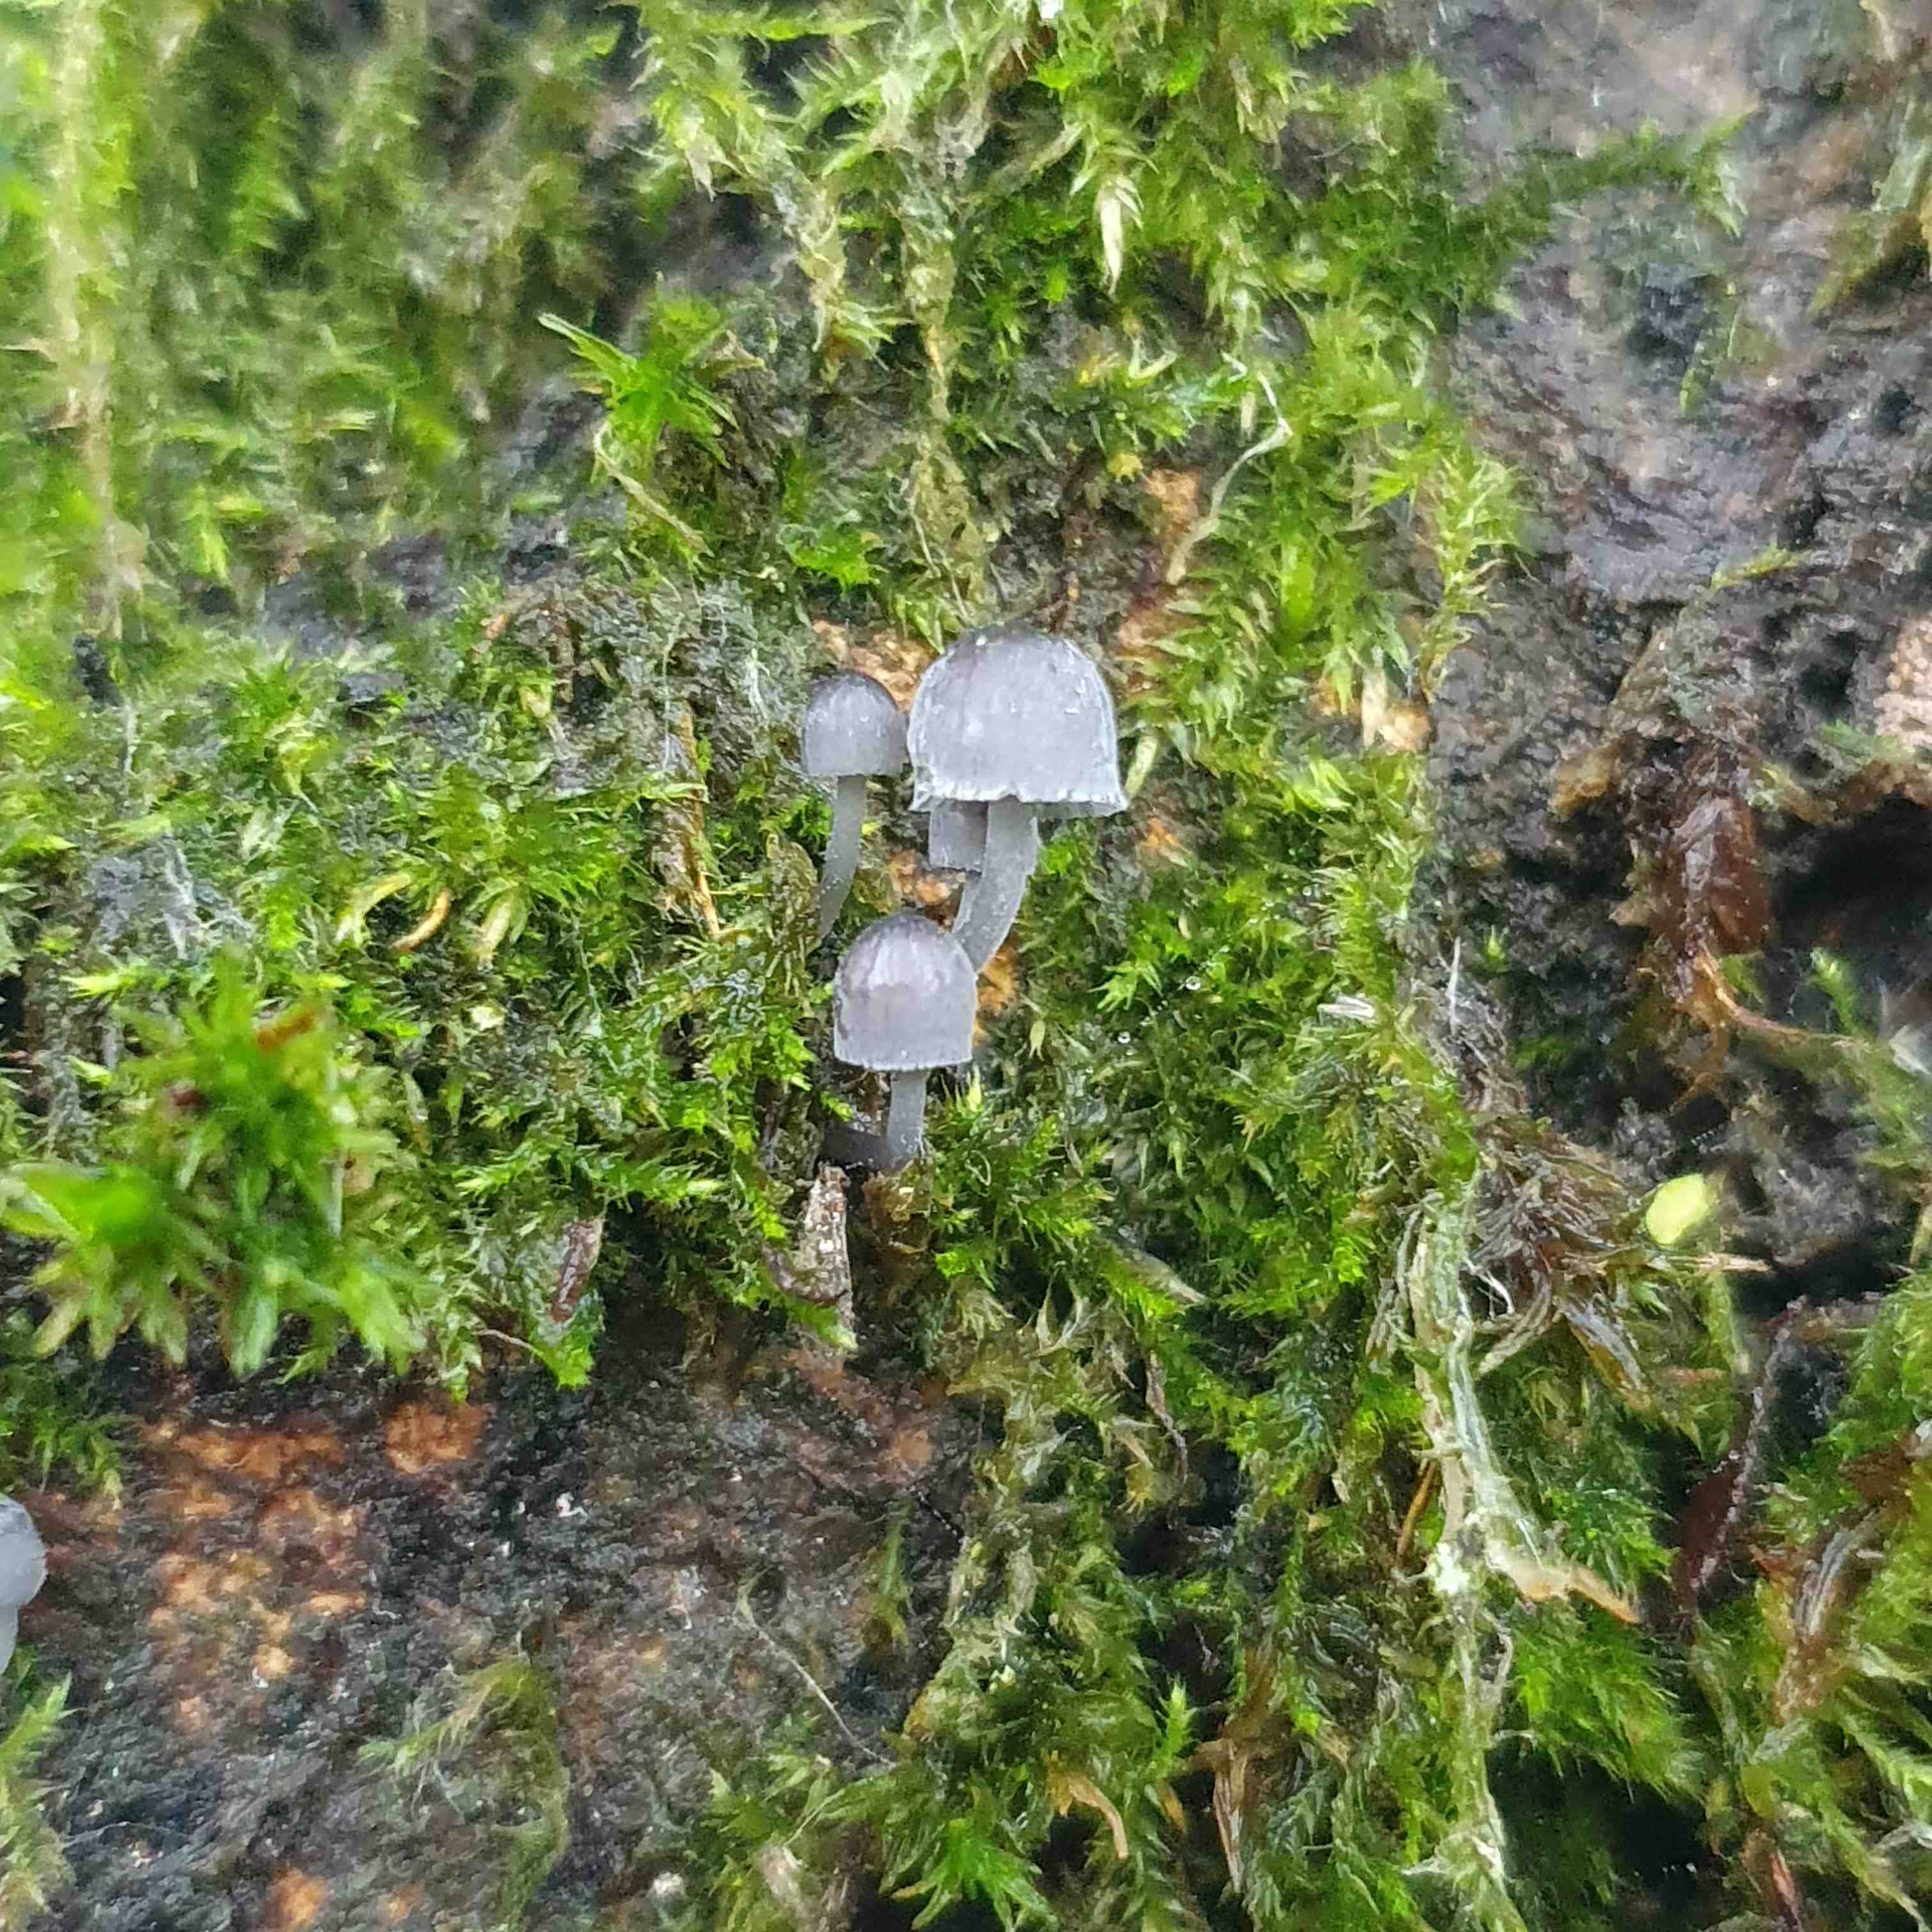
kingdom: Fungi
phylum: Basidiomycota
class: Agaricomycetes
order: Agaricales
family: Mycenaceae
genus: Mycena
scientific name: Mycena pseudocorticola
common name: gråblå bark-huesvamp
